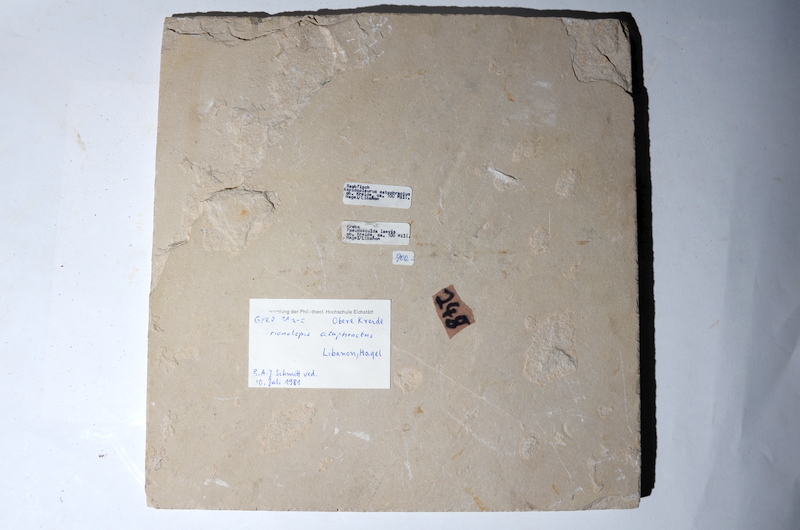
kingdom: Animalia
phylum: Chordata
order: Aulopiformes
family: Aspidopleuridae
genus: Aspidopleurus
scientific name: Aspidopleurus cataphractus
